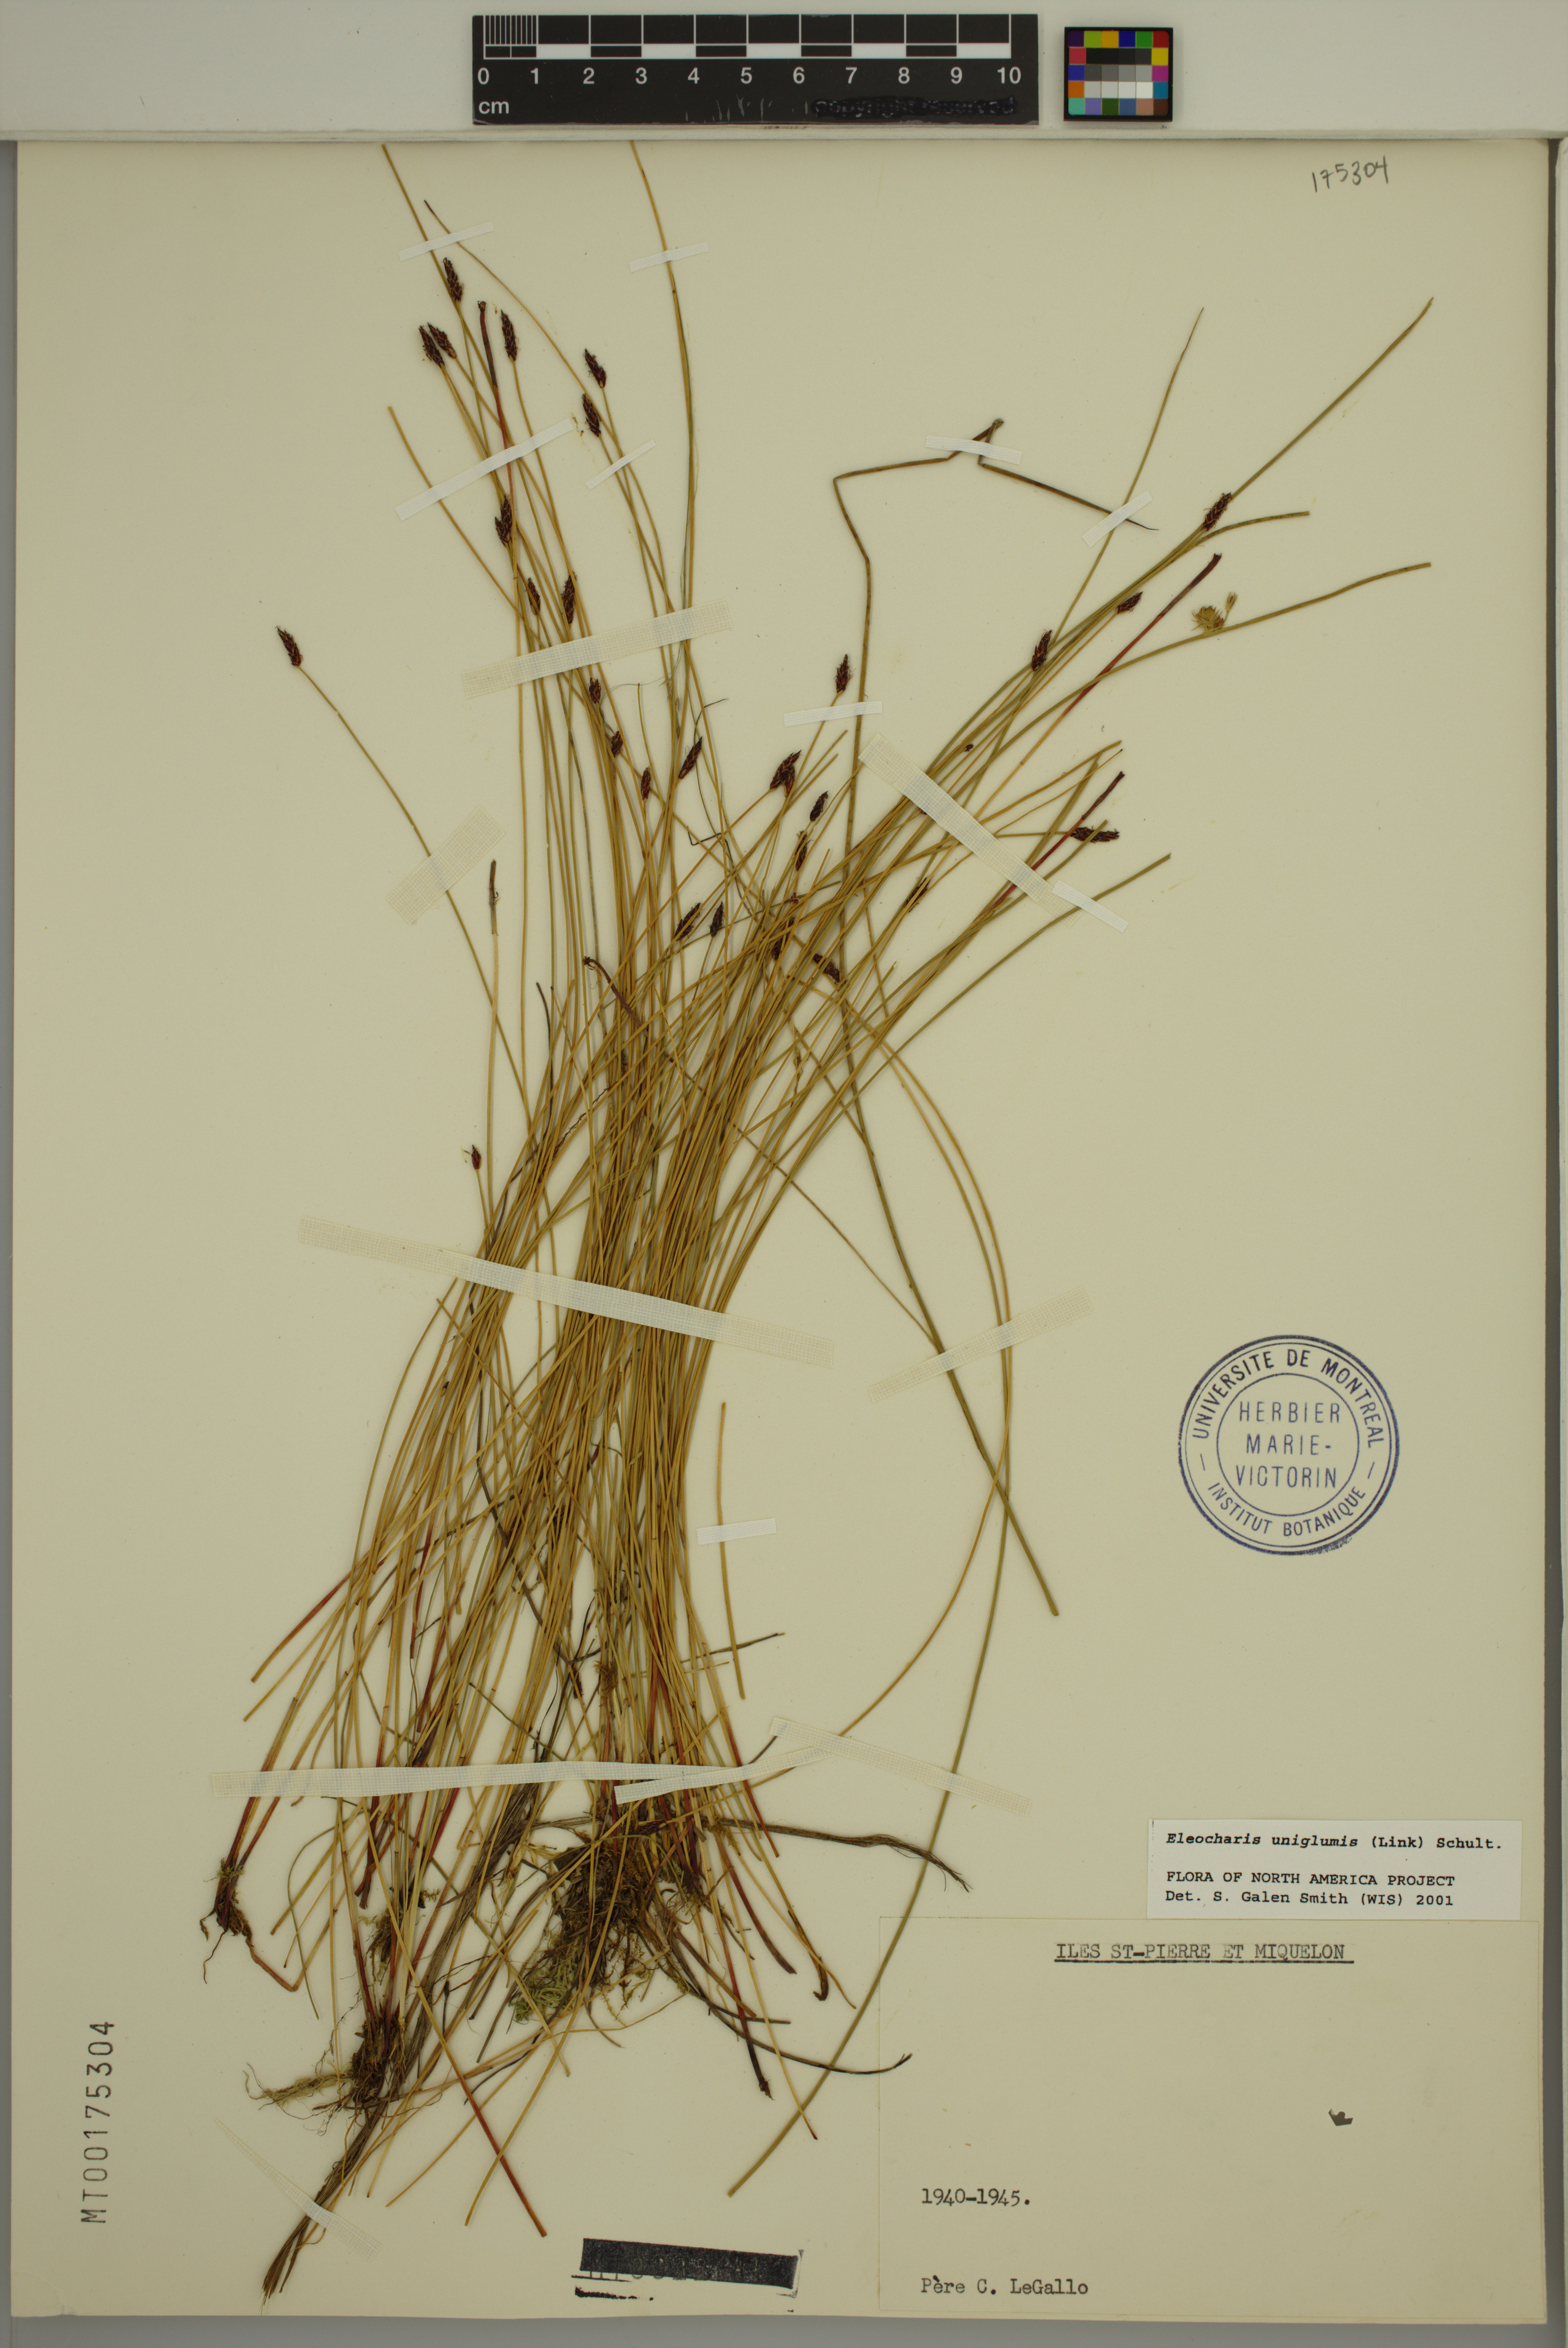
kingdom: Plantae
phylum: Tracheophyta
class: Liliopsida
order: Poales
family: Cyperaceae
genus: Eleocharis
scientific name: Eleocharis uniglumis
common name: Slender spike-rush
